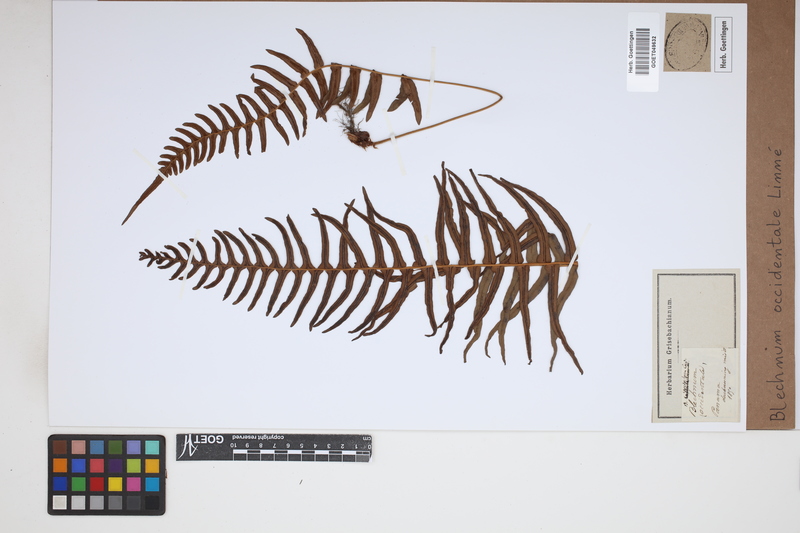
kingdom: Plantae
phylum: Tracheophyta
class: Polypodiopsida
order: Polypodiales
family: Blechnaceae
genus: Blechnum
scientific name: Blechnum occidentale
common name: Hammock fern
